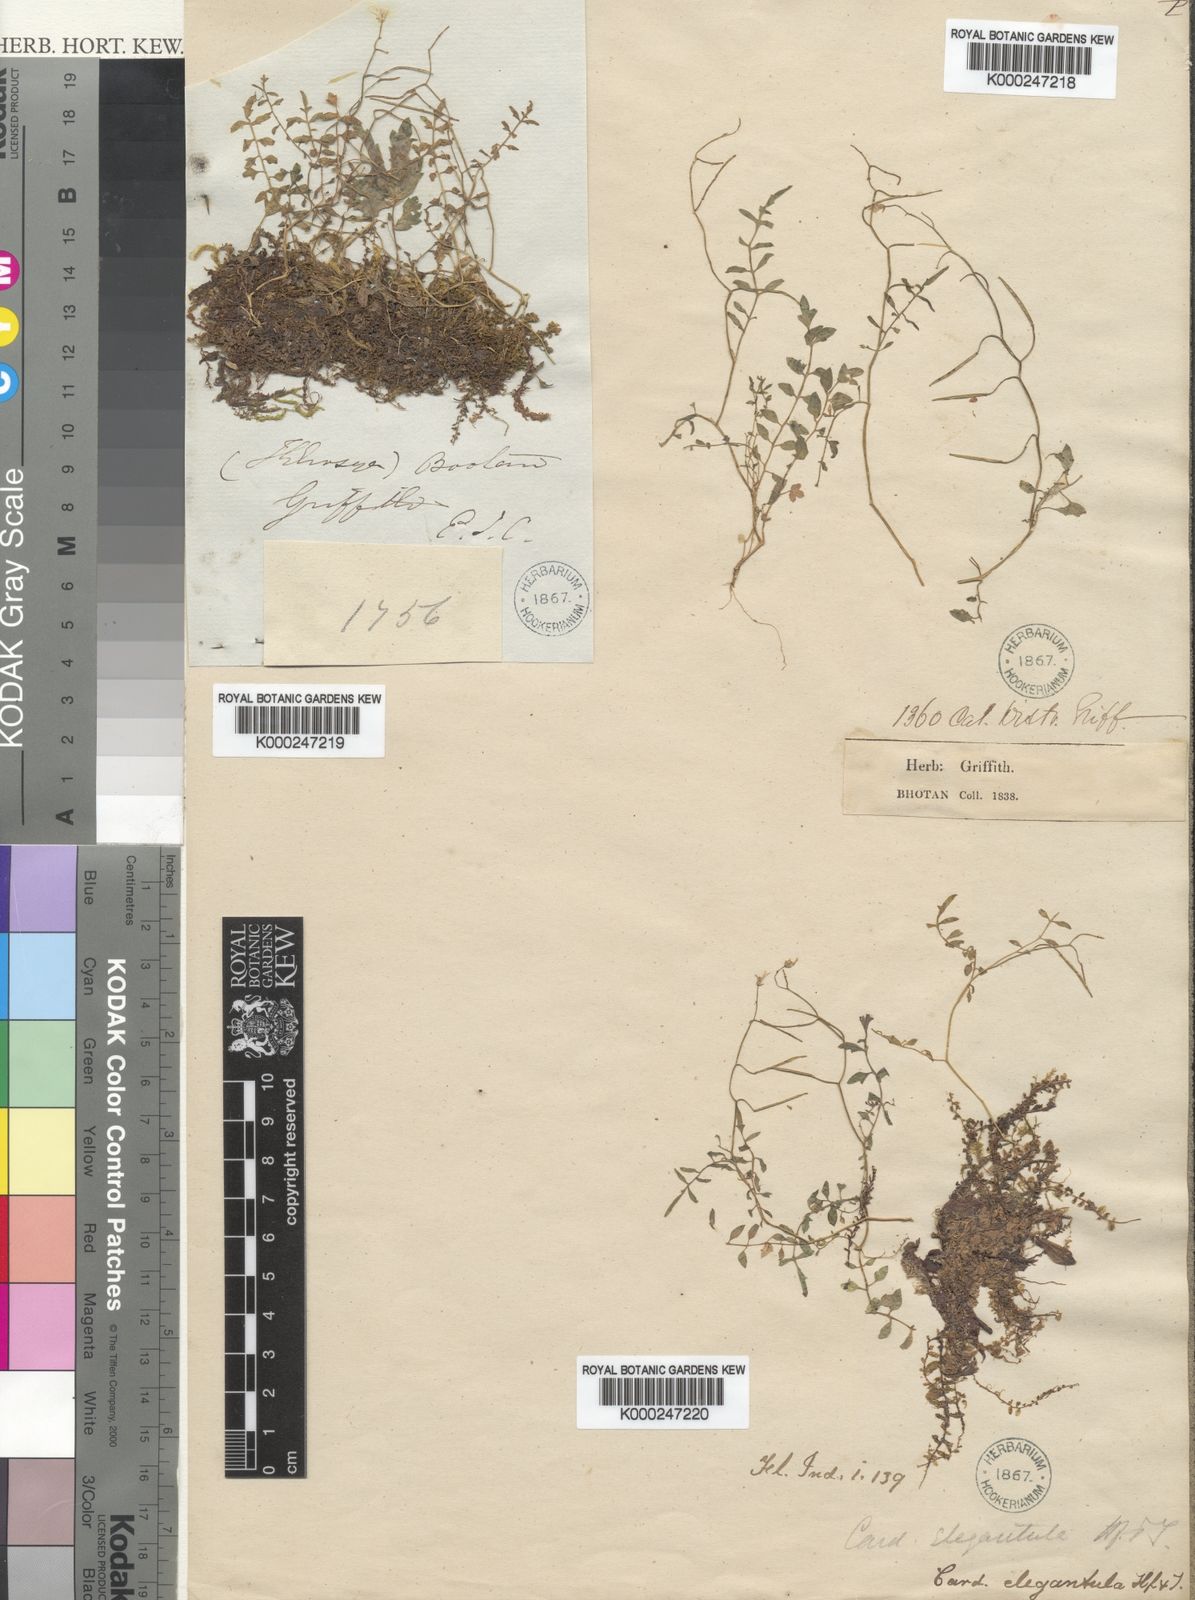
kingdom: Plantae
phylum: Tracheophyta
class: Magnoliopsida
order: Brassicales
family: Brassicaceae
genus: Cardamine
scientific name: Cardamine elegantula
